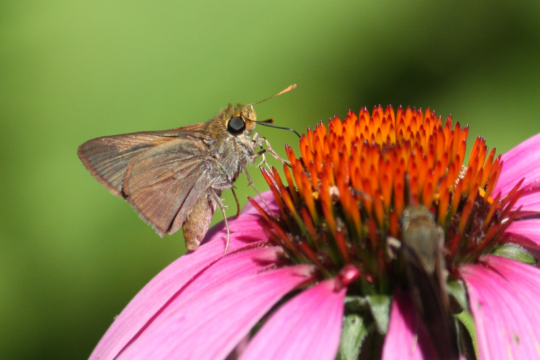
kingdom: Animalia
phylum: Arthropoda
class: Insecta
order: Lepidoptera
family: Hesperiidae
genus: Euphyes
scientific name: Euphyes vestris
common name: Dun Skipper
